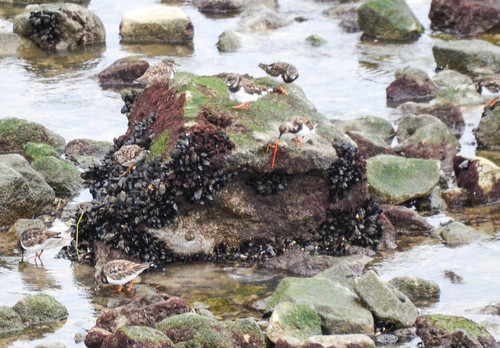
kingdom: Animalia
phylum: Chordata
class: Aves
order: Charadriiformes
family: Scolopacidae
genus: Arenaria
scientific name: Arenaria interpres
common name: Ruddy turnstone
